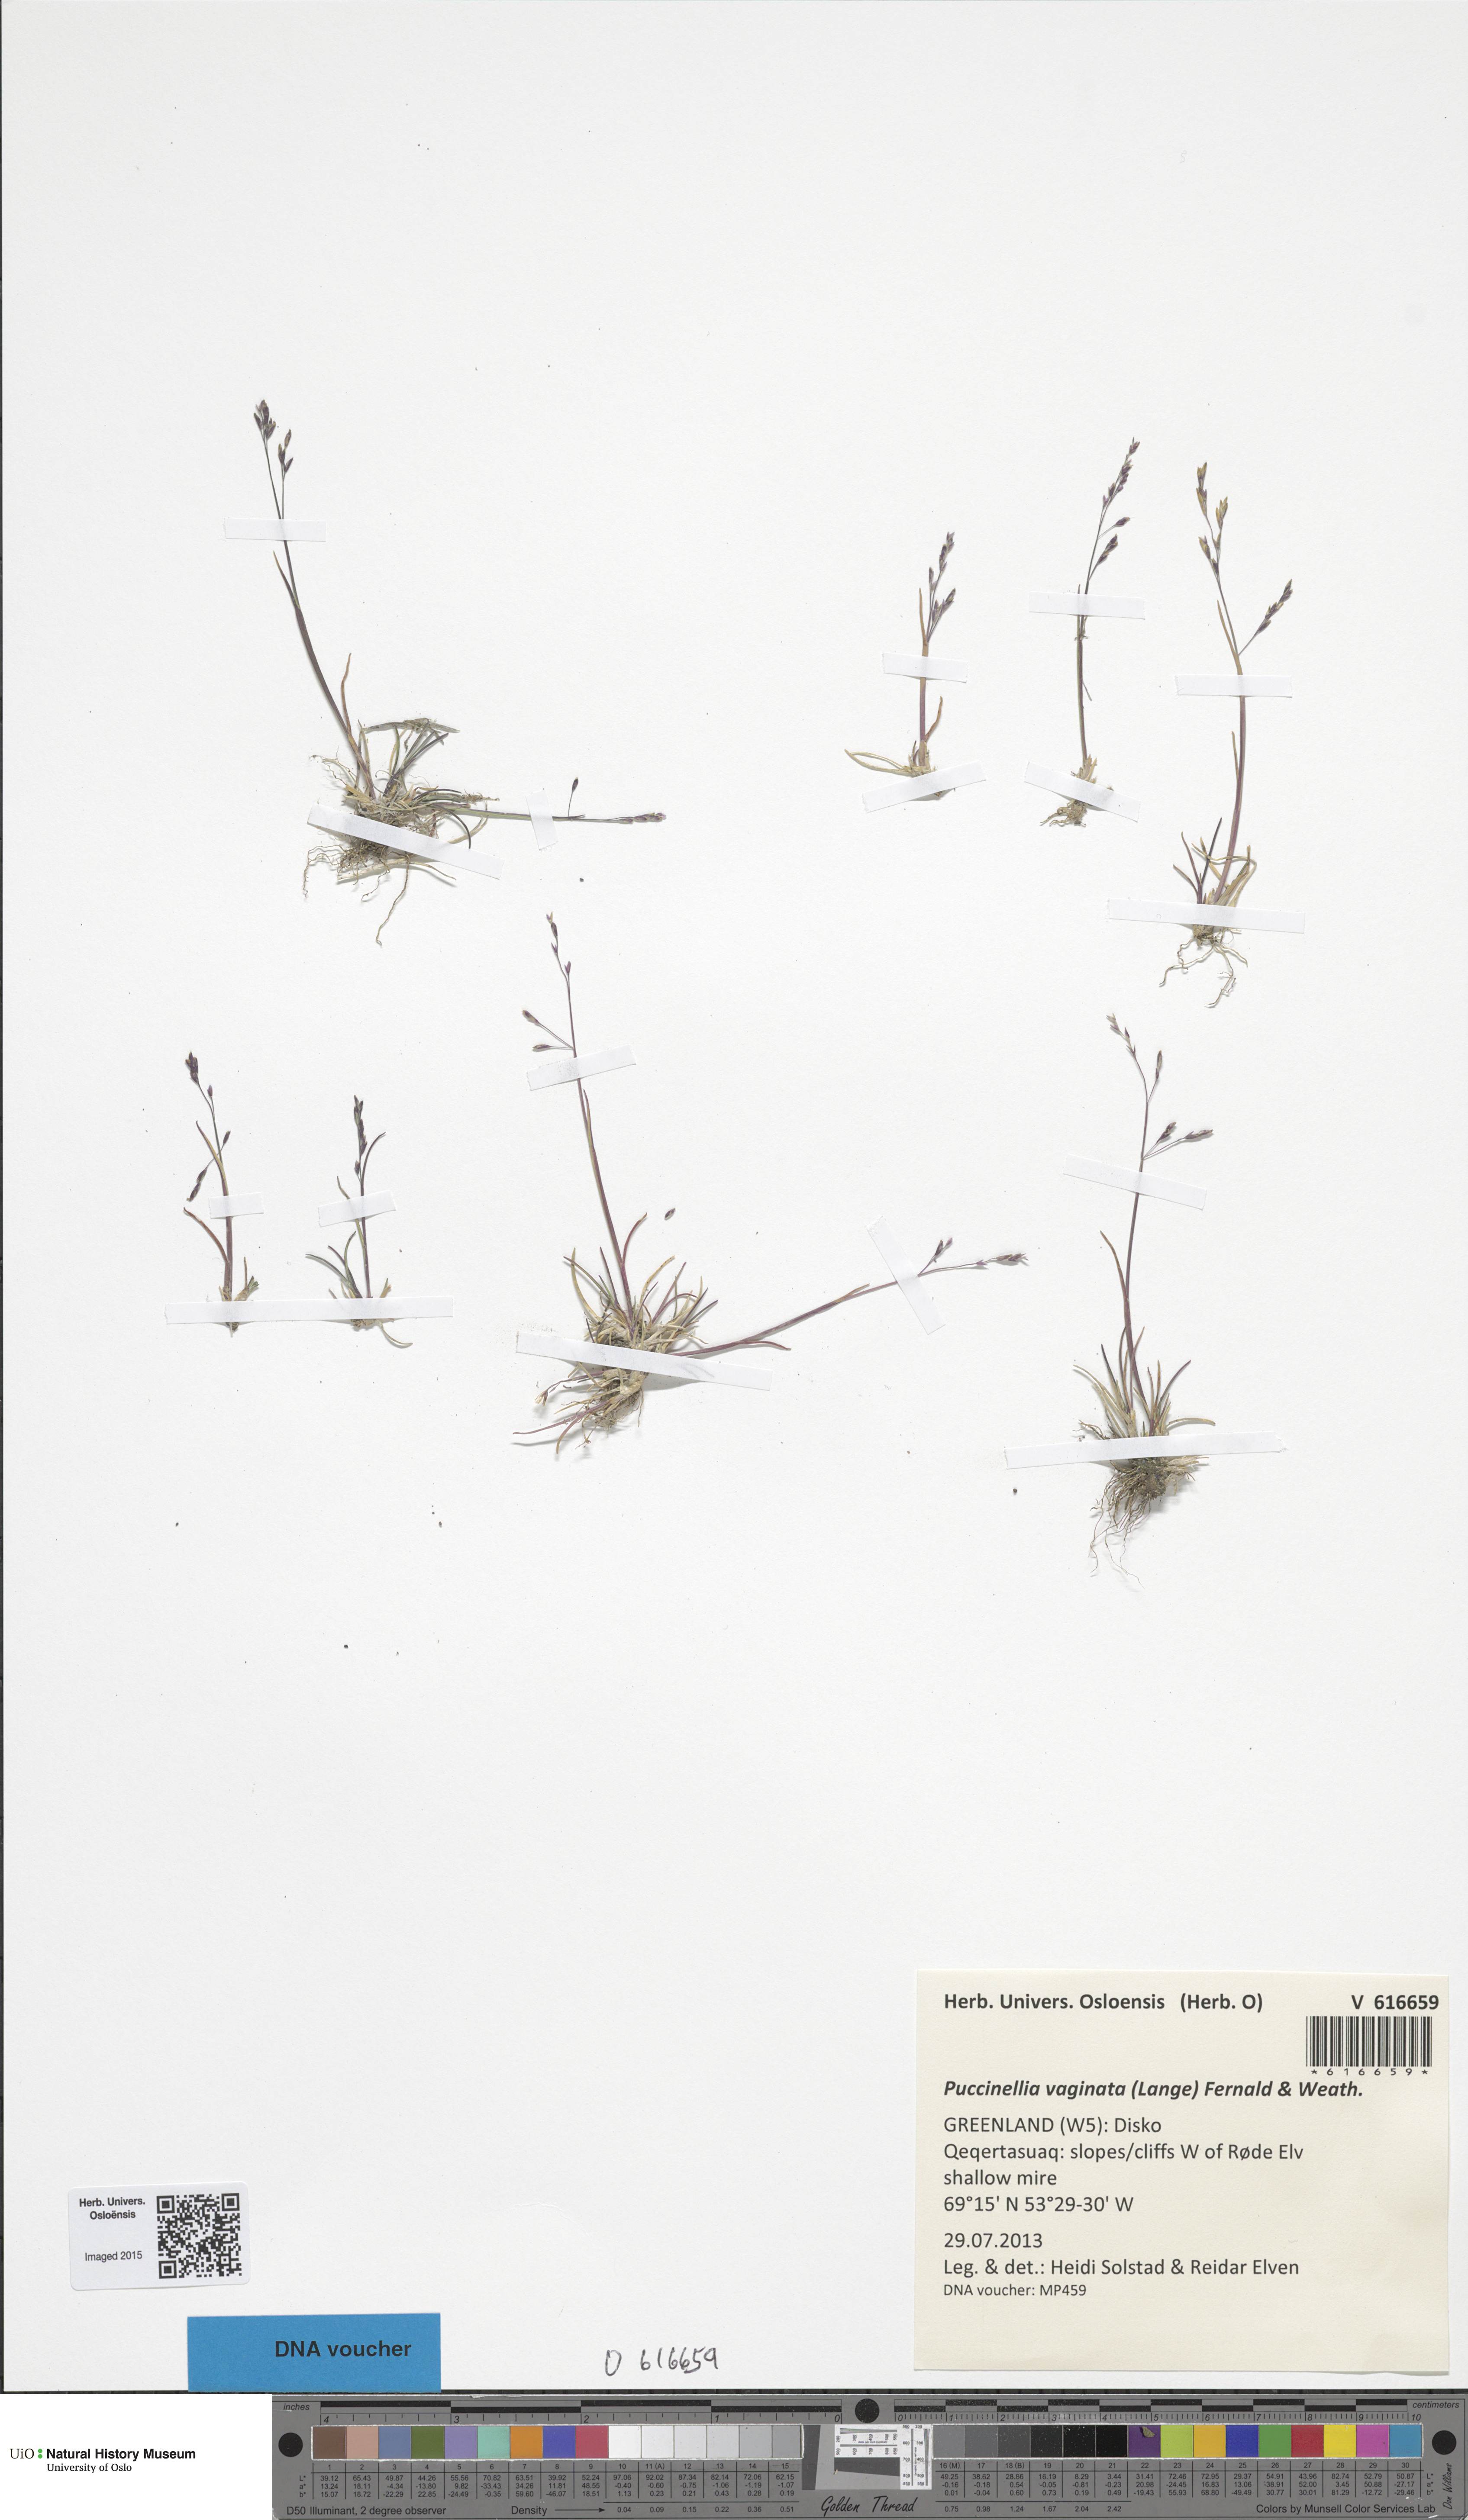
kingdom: Plantae
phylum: Tracheophyta
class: Liliopsida
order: Poales
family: Poaceae
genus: Puccinellia
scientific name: Puccinellia vaginata
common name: Arctic tussock alkaligrass
